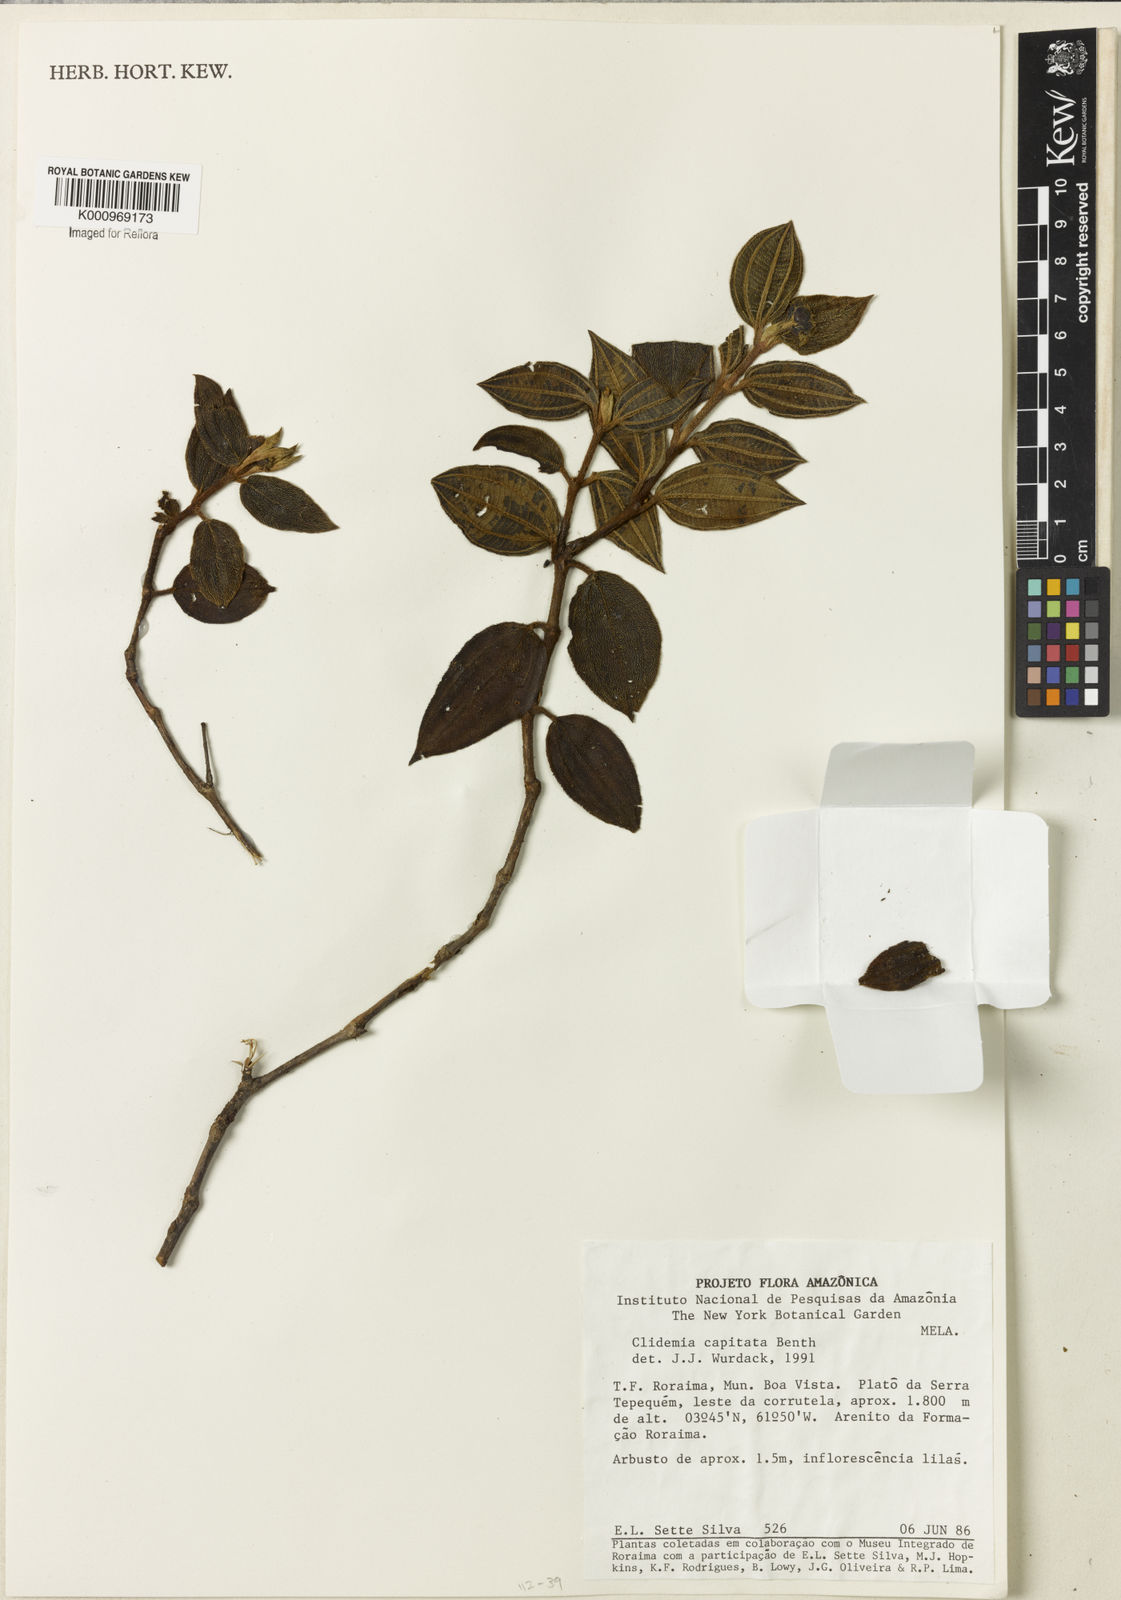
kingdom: Plantae
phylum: Tracheophyta
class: Magnoliopsida
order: Myrtales
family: Melastomataceae
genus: Miconia
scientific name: Miconia benthamii
